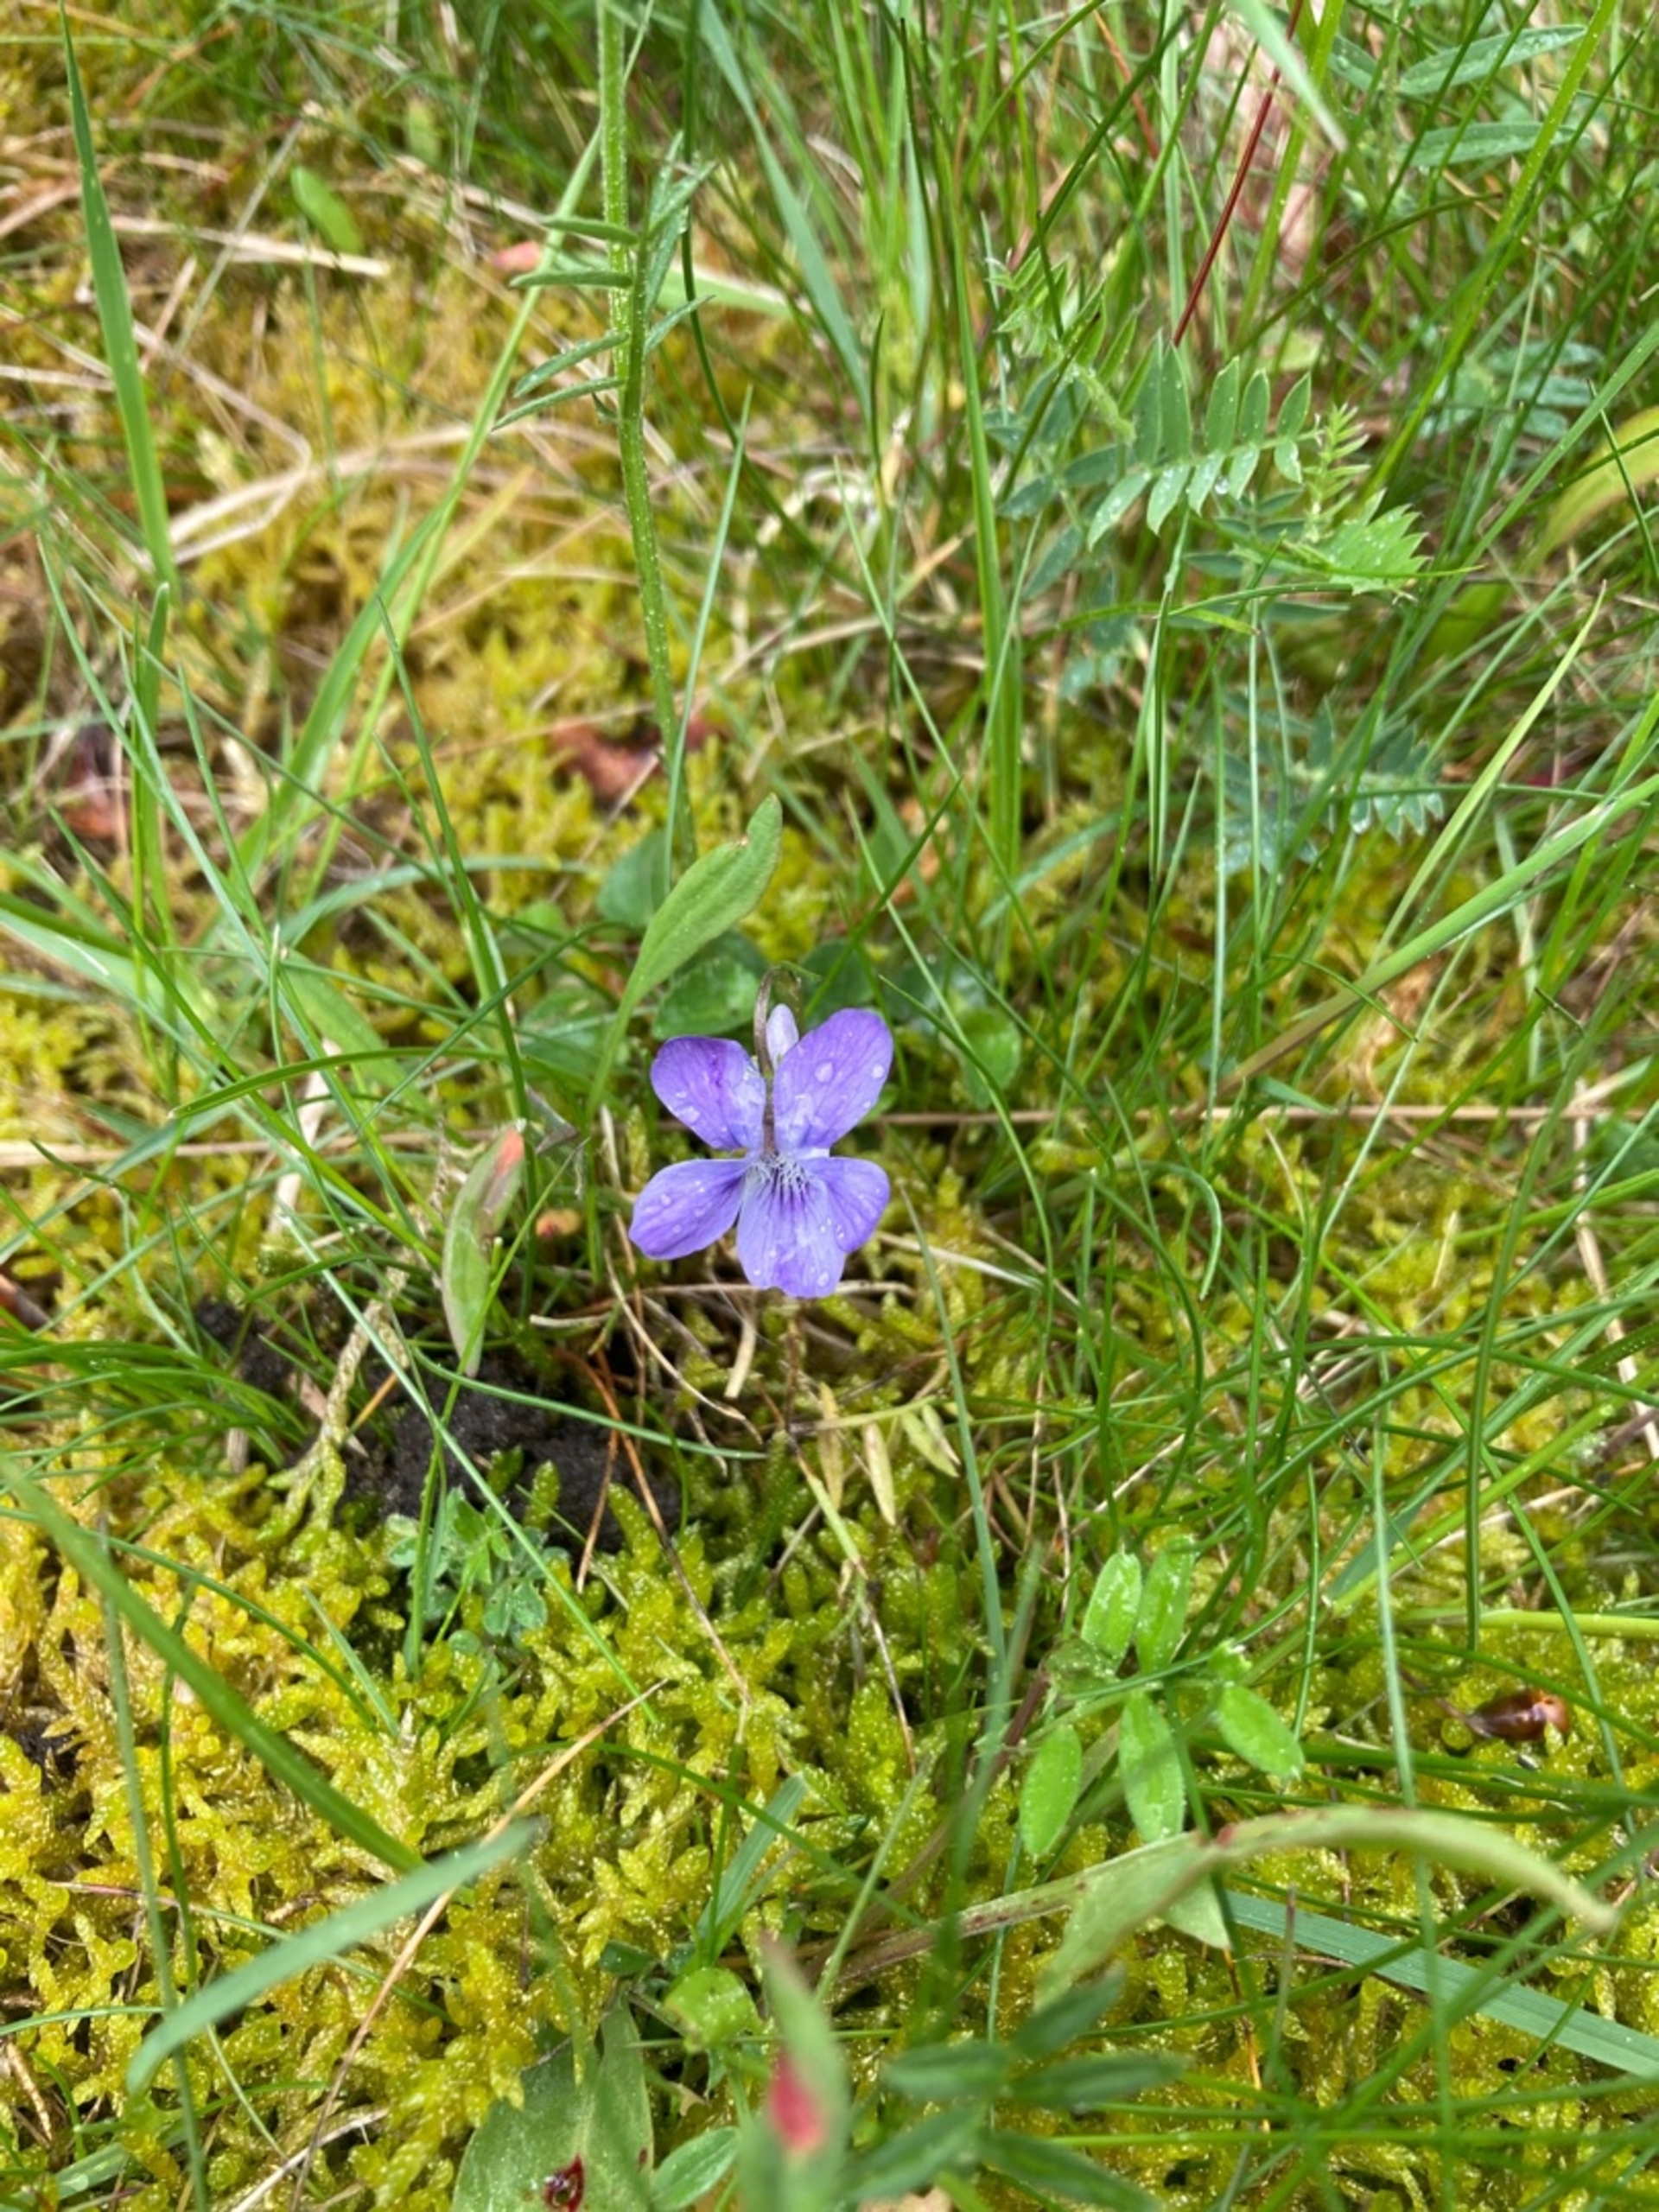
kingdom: Plantae
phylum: Tracheophyta
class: Magnoliopsida
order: Malpighiales
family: Violaceae
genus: Viola
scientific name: Viola reichenbachiana
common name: Skov-viol
